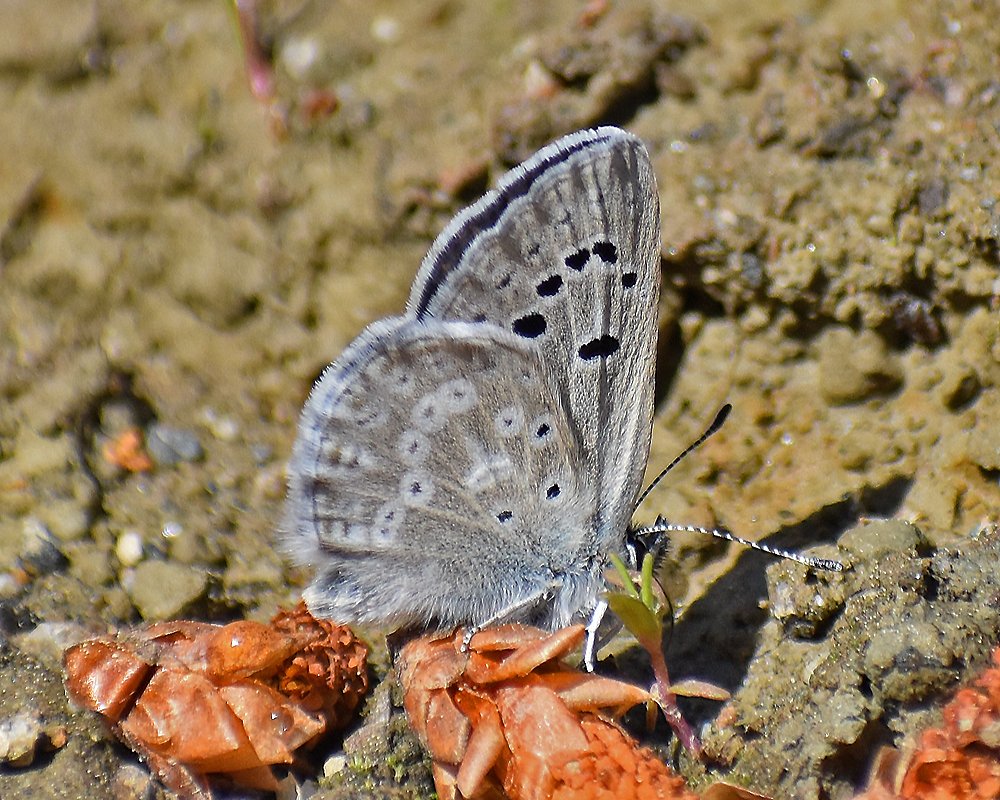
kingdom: Animalia
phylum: Arthropoda
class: Insecta
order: Lepidoptera
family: Lycaenidae
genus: Icaricia
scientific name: Icaricia icarioides
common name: Boisduval's Blue
